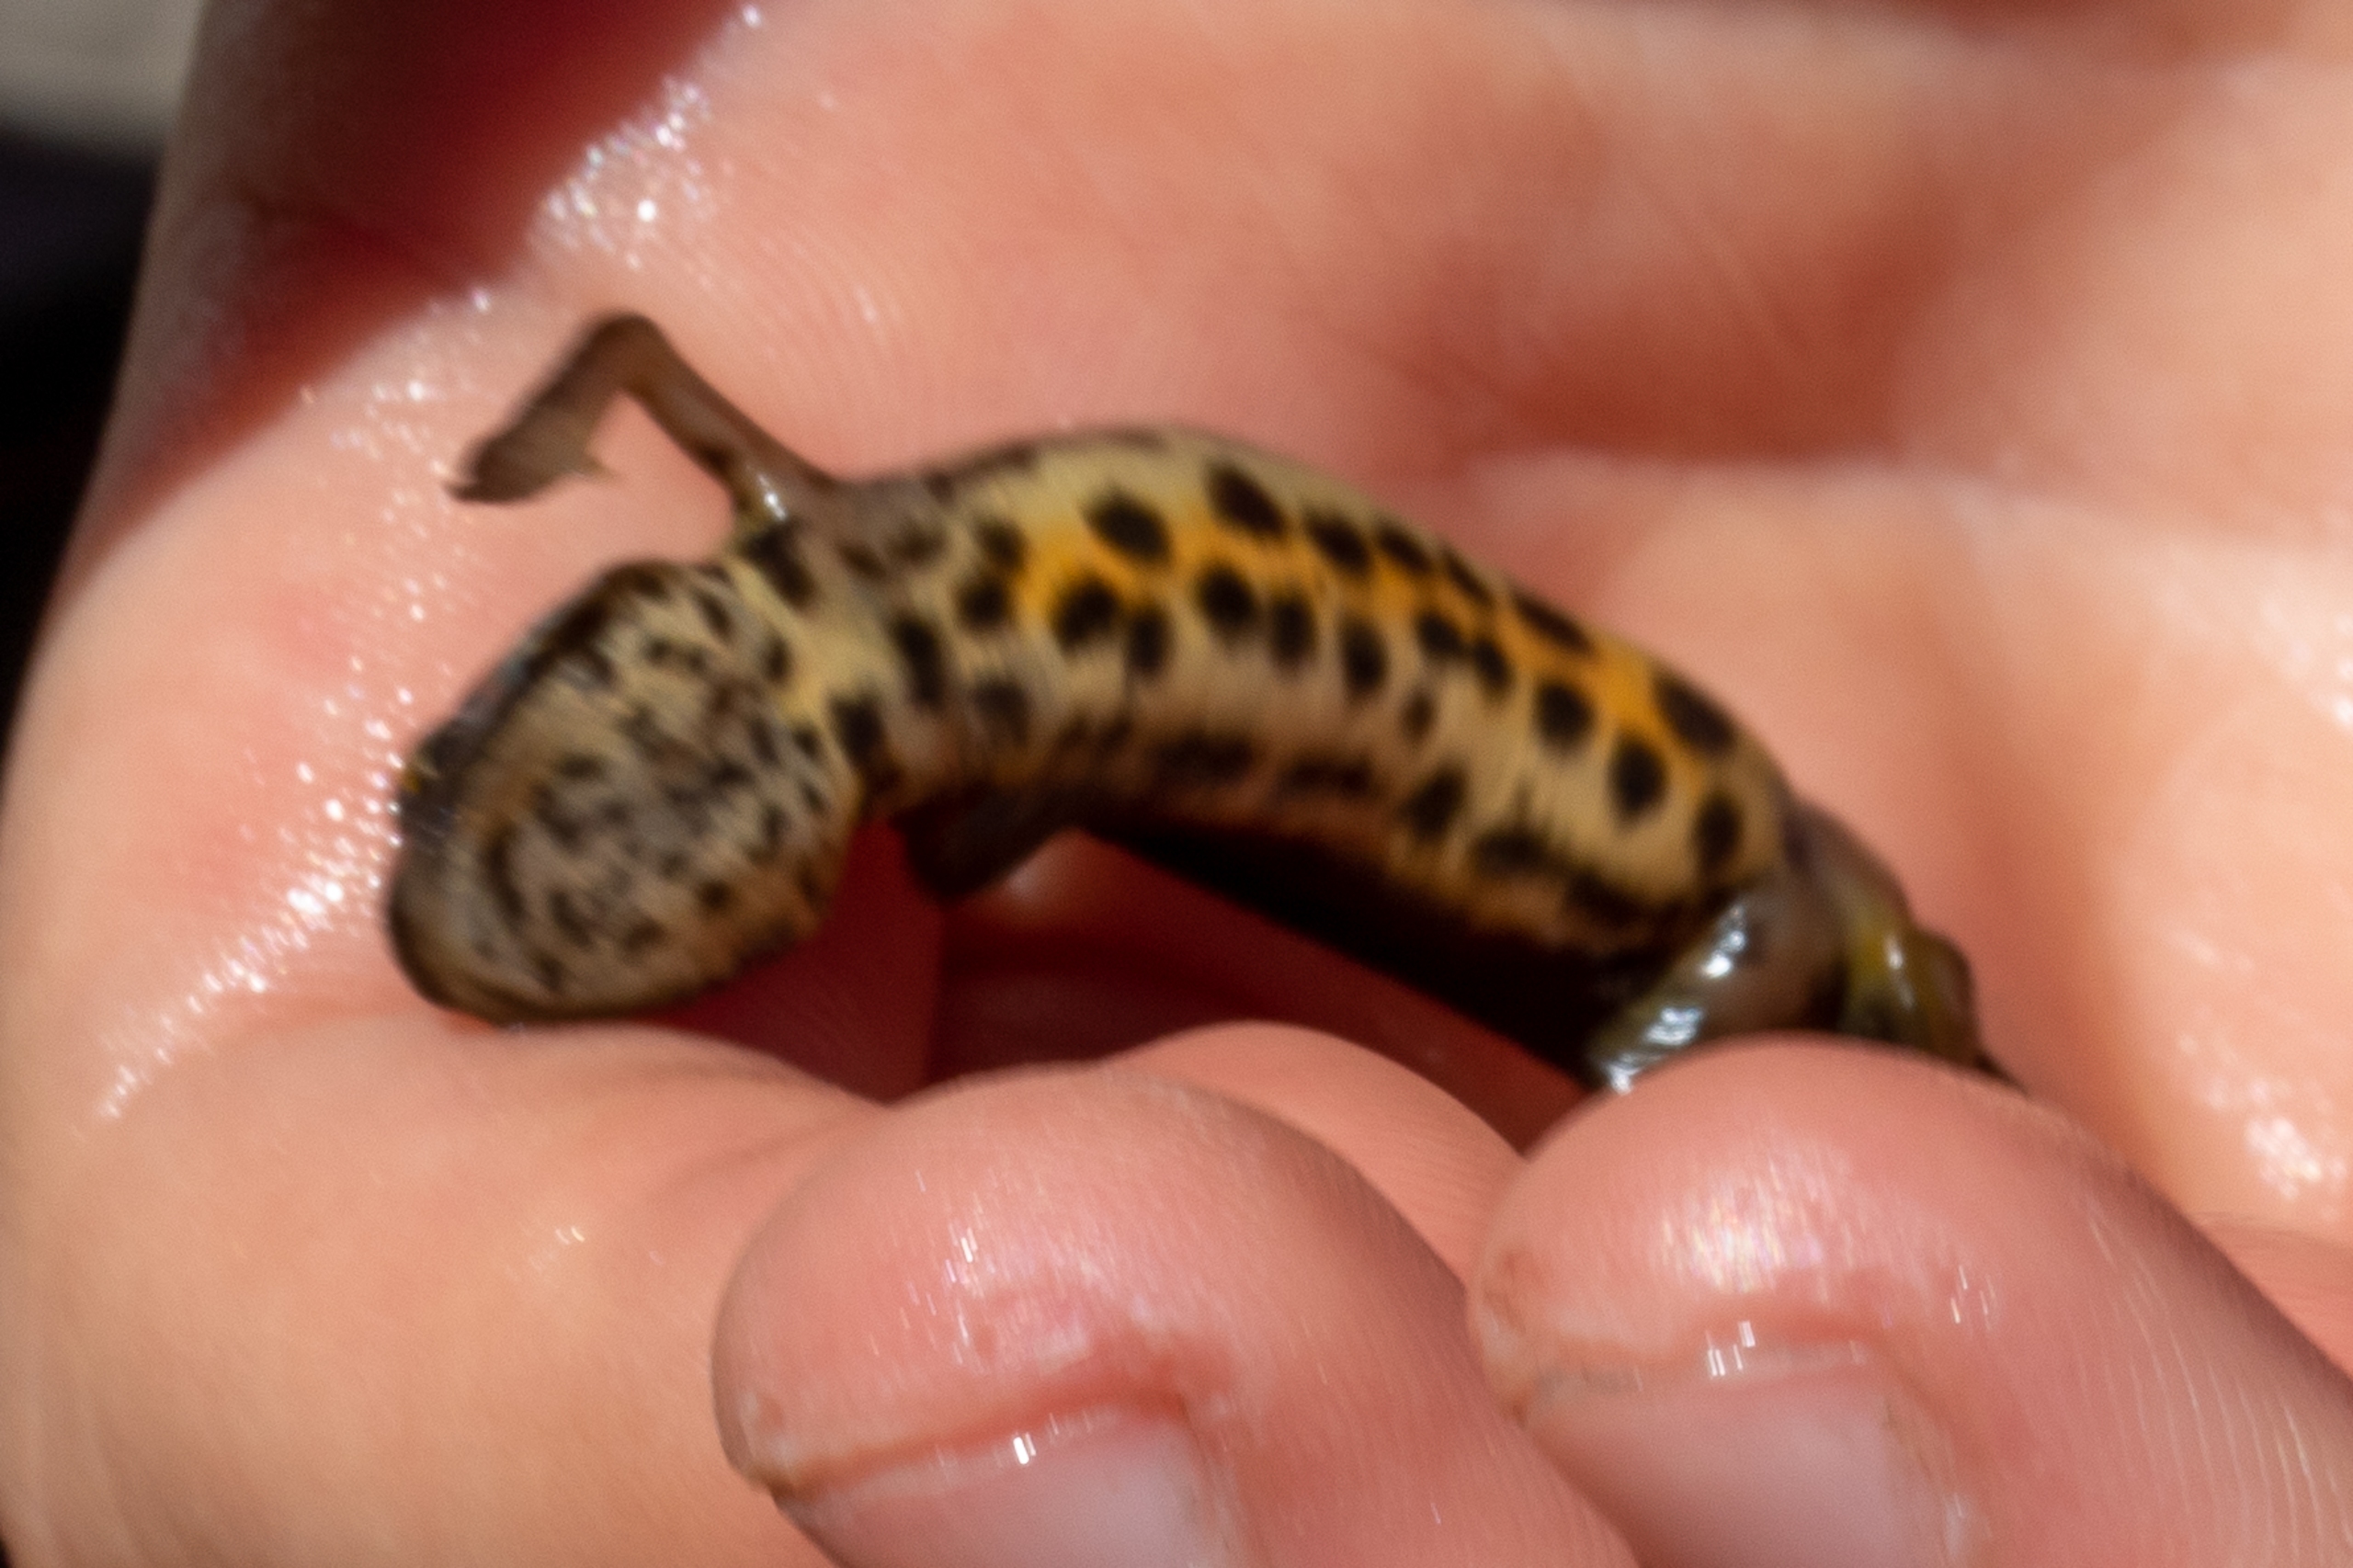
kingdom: Animalia
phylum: Chordata
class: Amphibia
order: Caudata
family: Salamandridae
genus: Lissotriton
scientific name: Lissotriton vulgaris
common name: Lille vandsalamander
